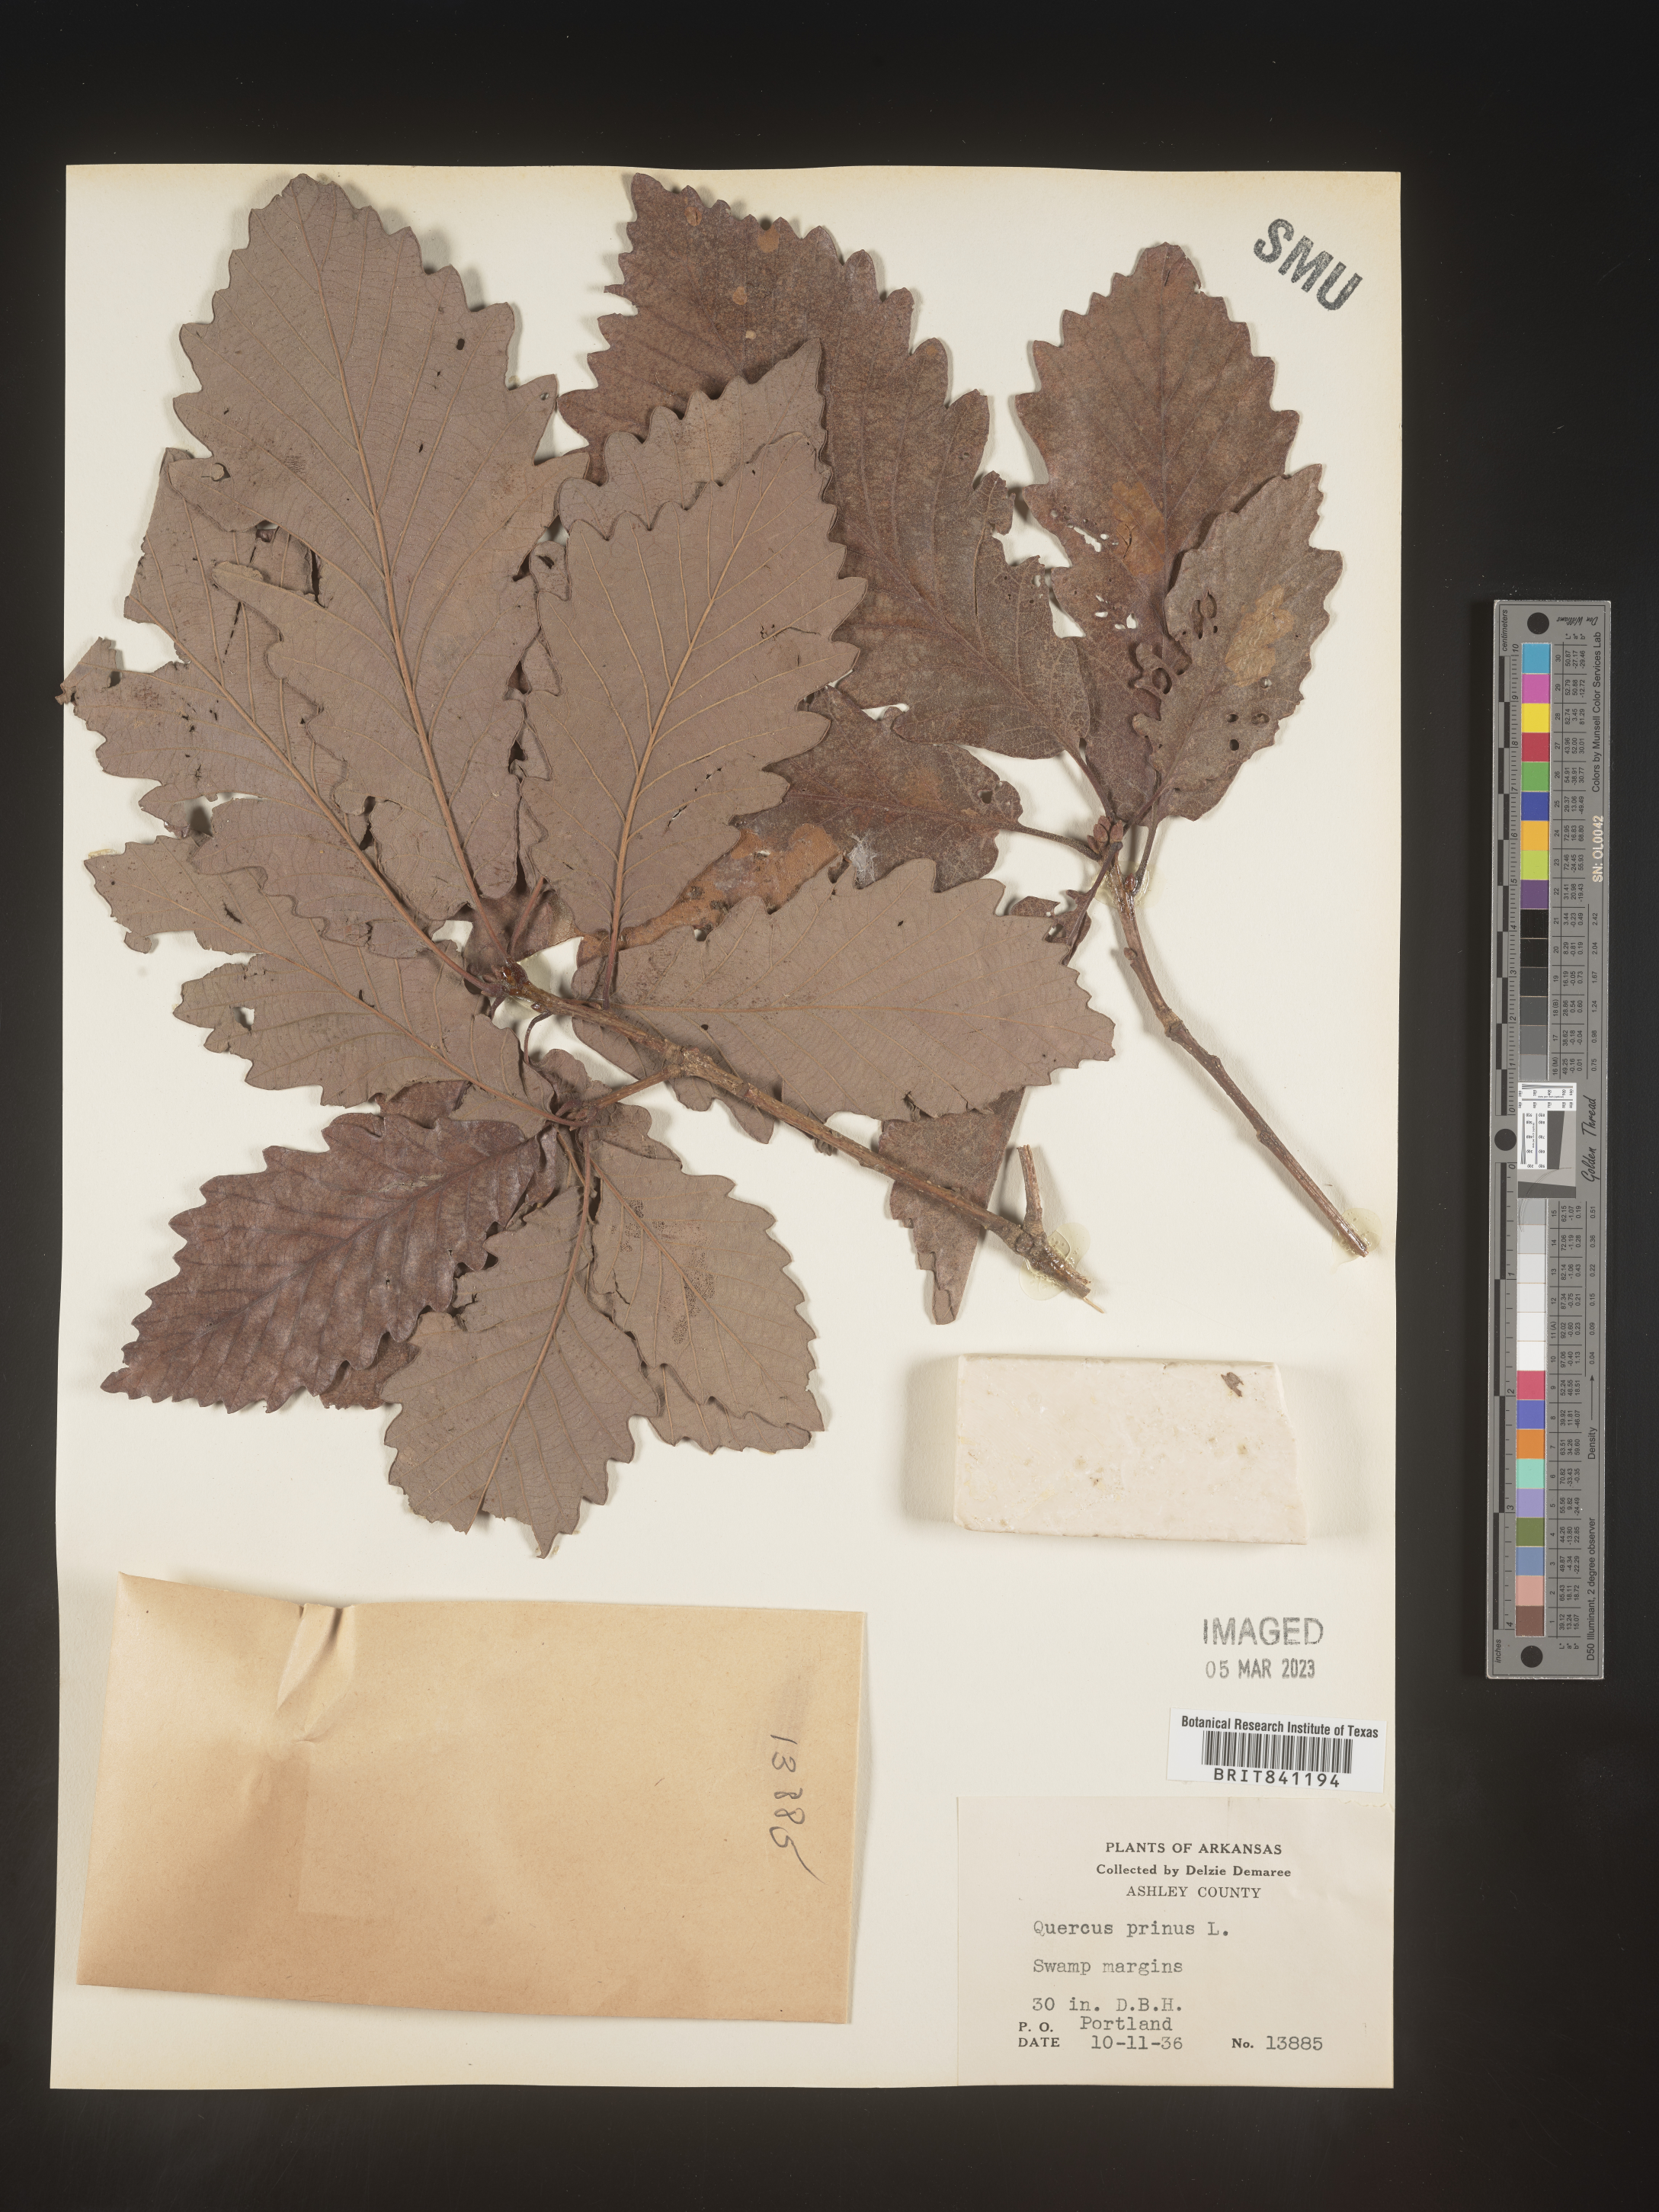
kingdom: Plantae
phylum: Tracheophyta
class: Magnoliopsida
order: Fagales
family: Fagaceae
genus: Quercus
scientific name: Quercus michauxii
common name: Swamp chestnut oak
